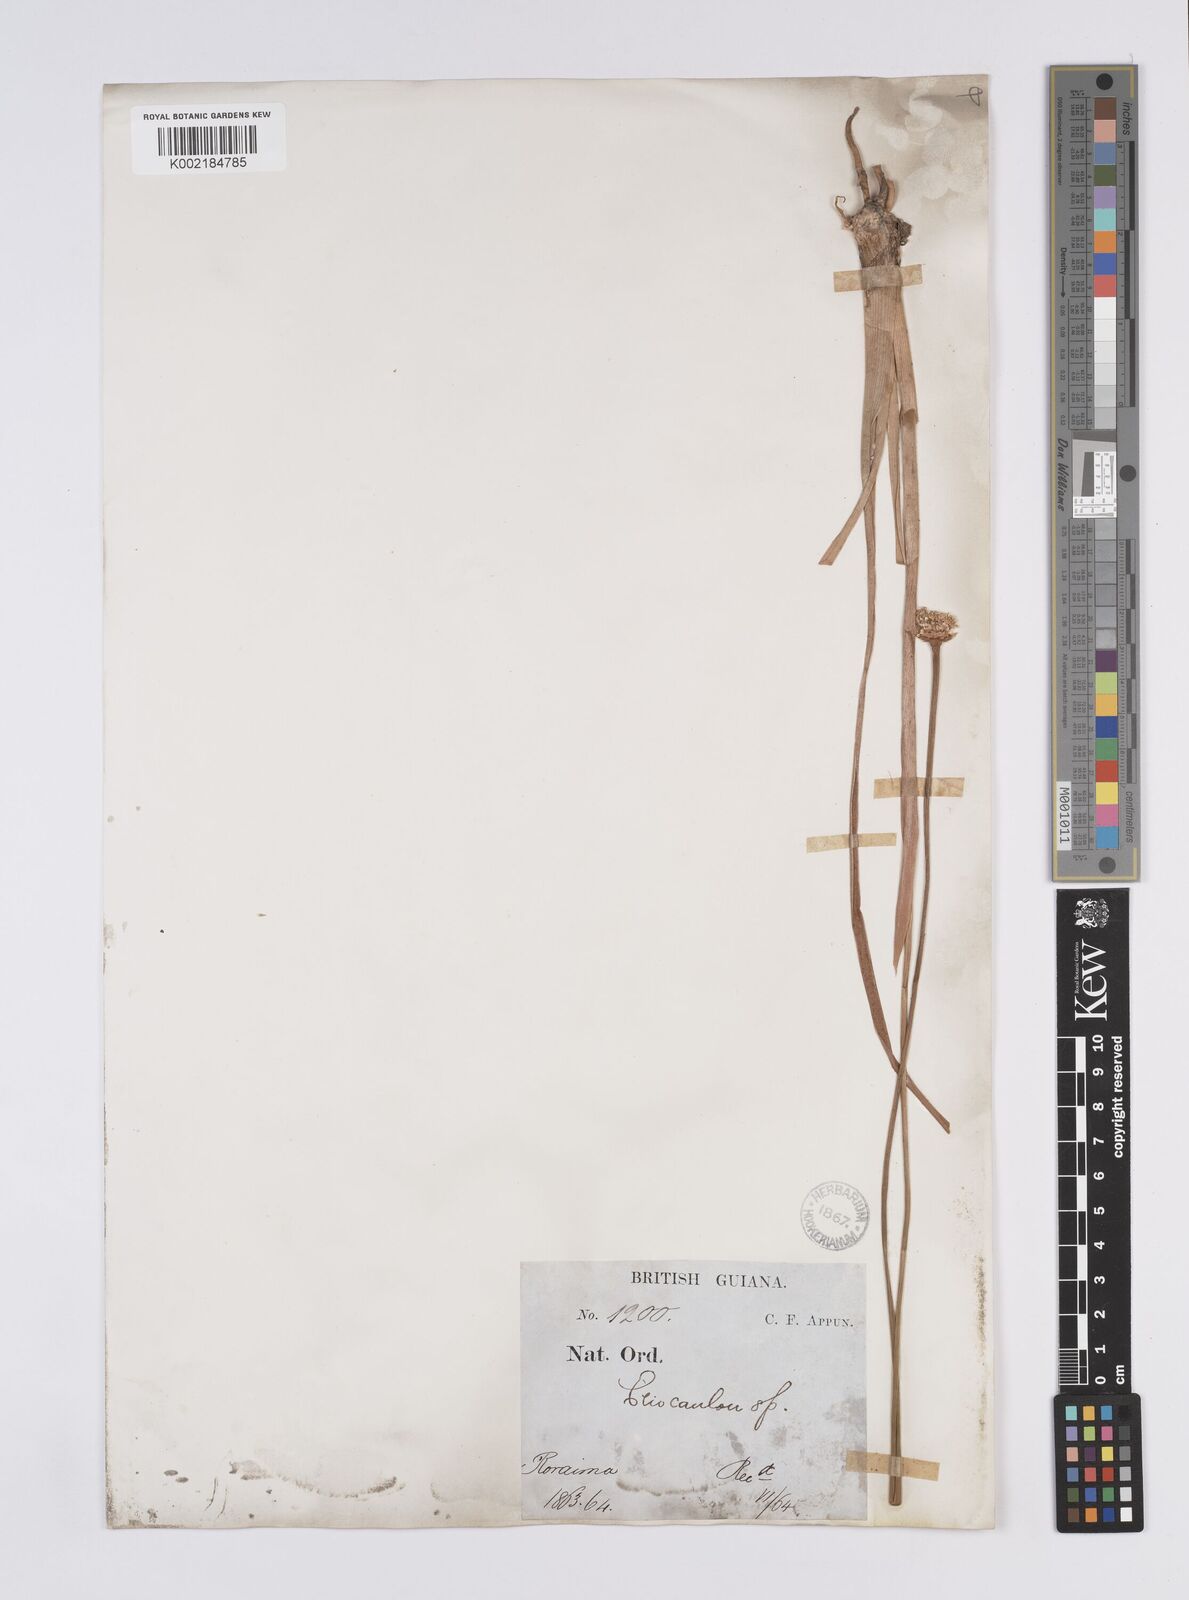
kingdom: Plantae
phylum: Tracheophyta
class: Liliopsida
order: Poales
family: Eriocaulaceae
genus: Eriocaulon
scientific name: Eriocaulon humboldtii
